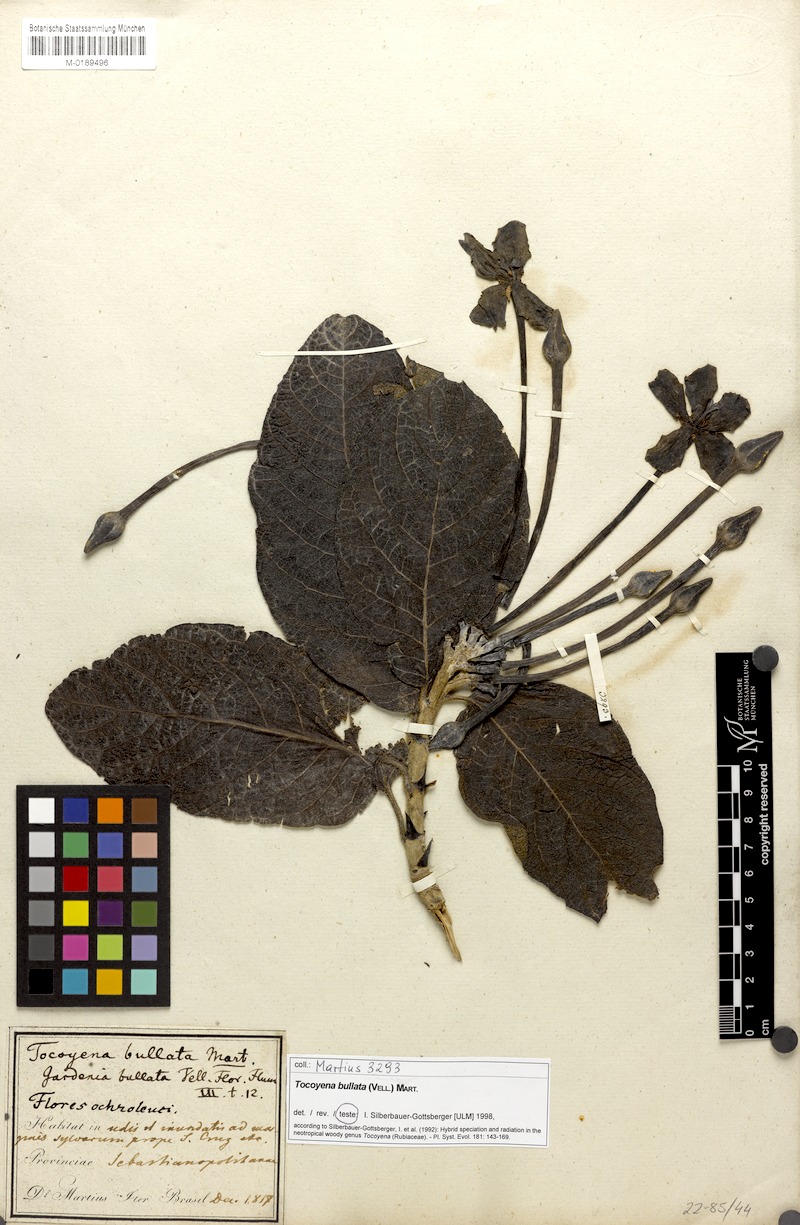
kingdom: Plantae
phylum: Tracheophyta
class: Magnoliopsida
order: Gentianales
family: Rubiaceae
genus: Tocoyena
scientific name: Tocoyena bullata
